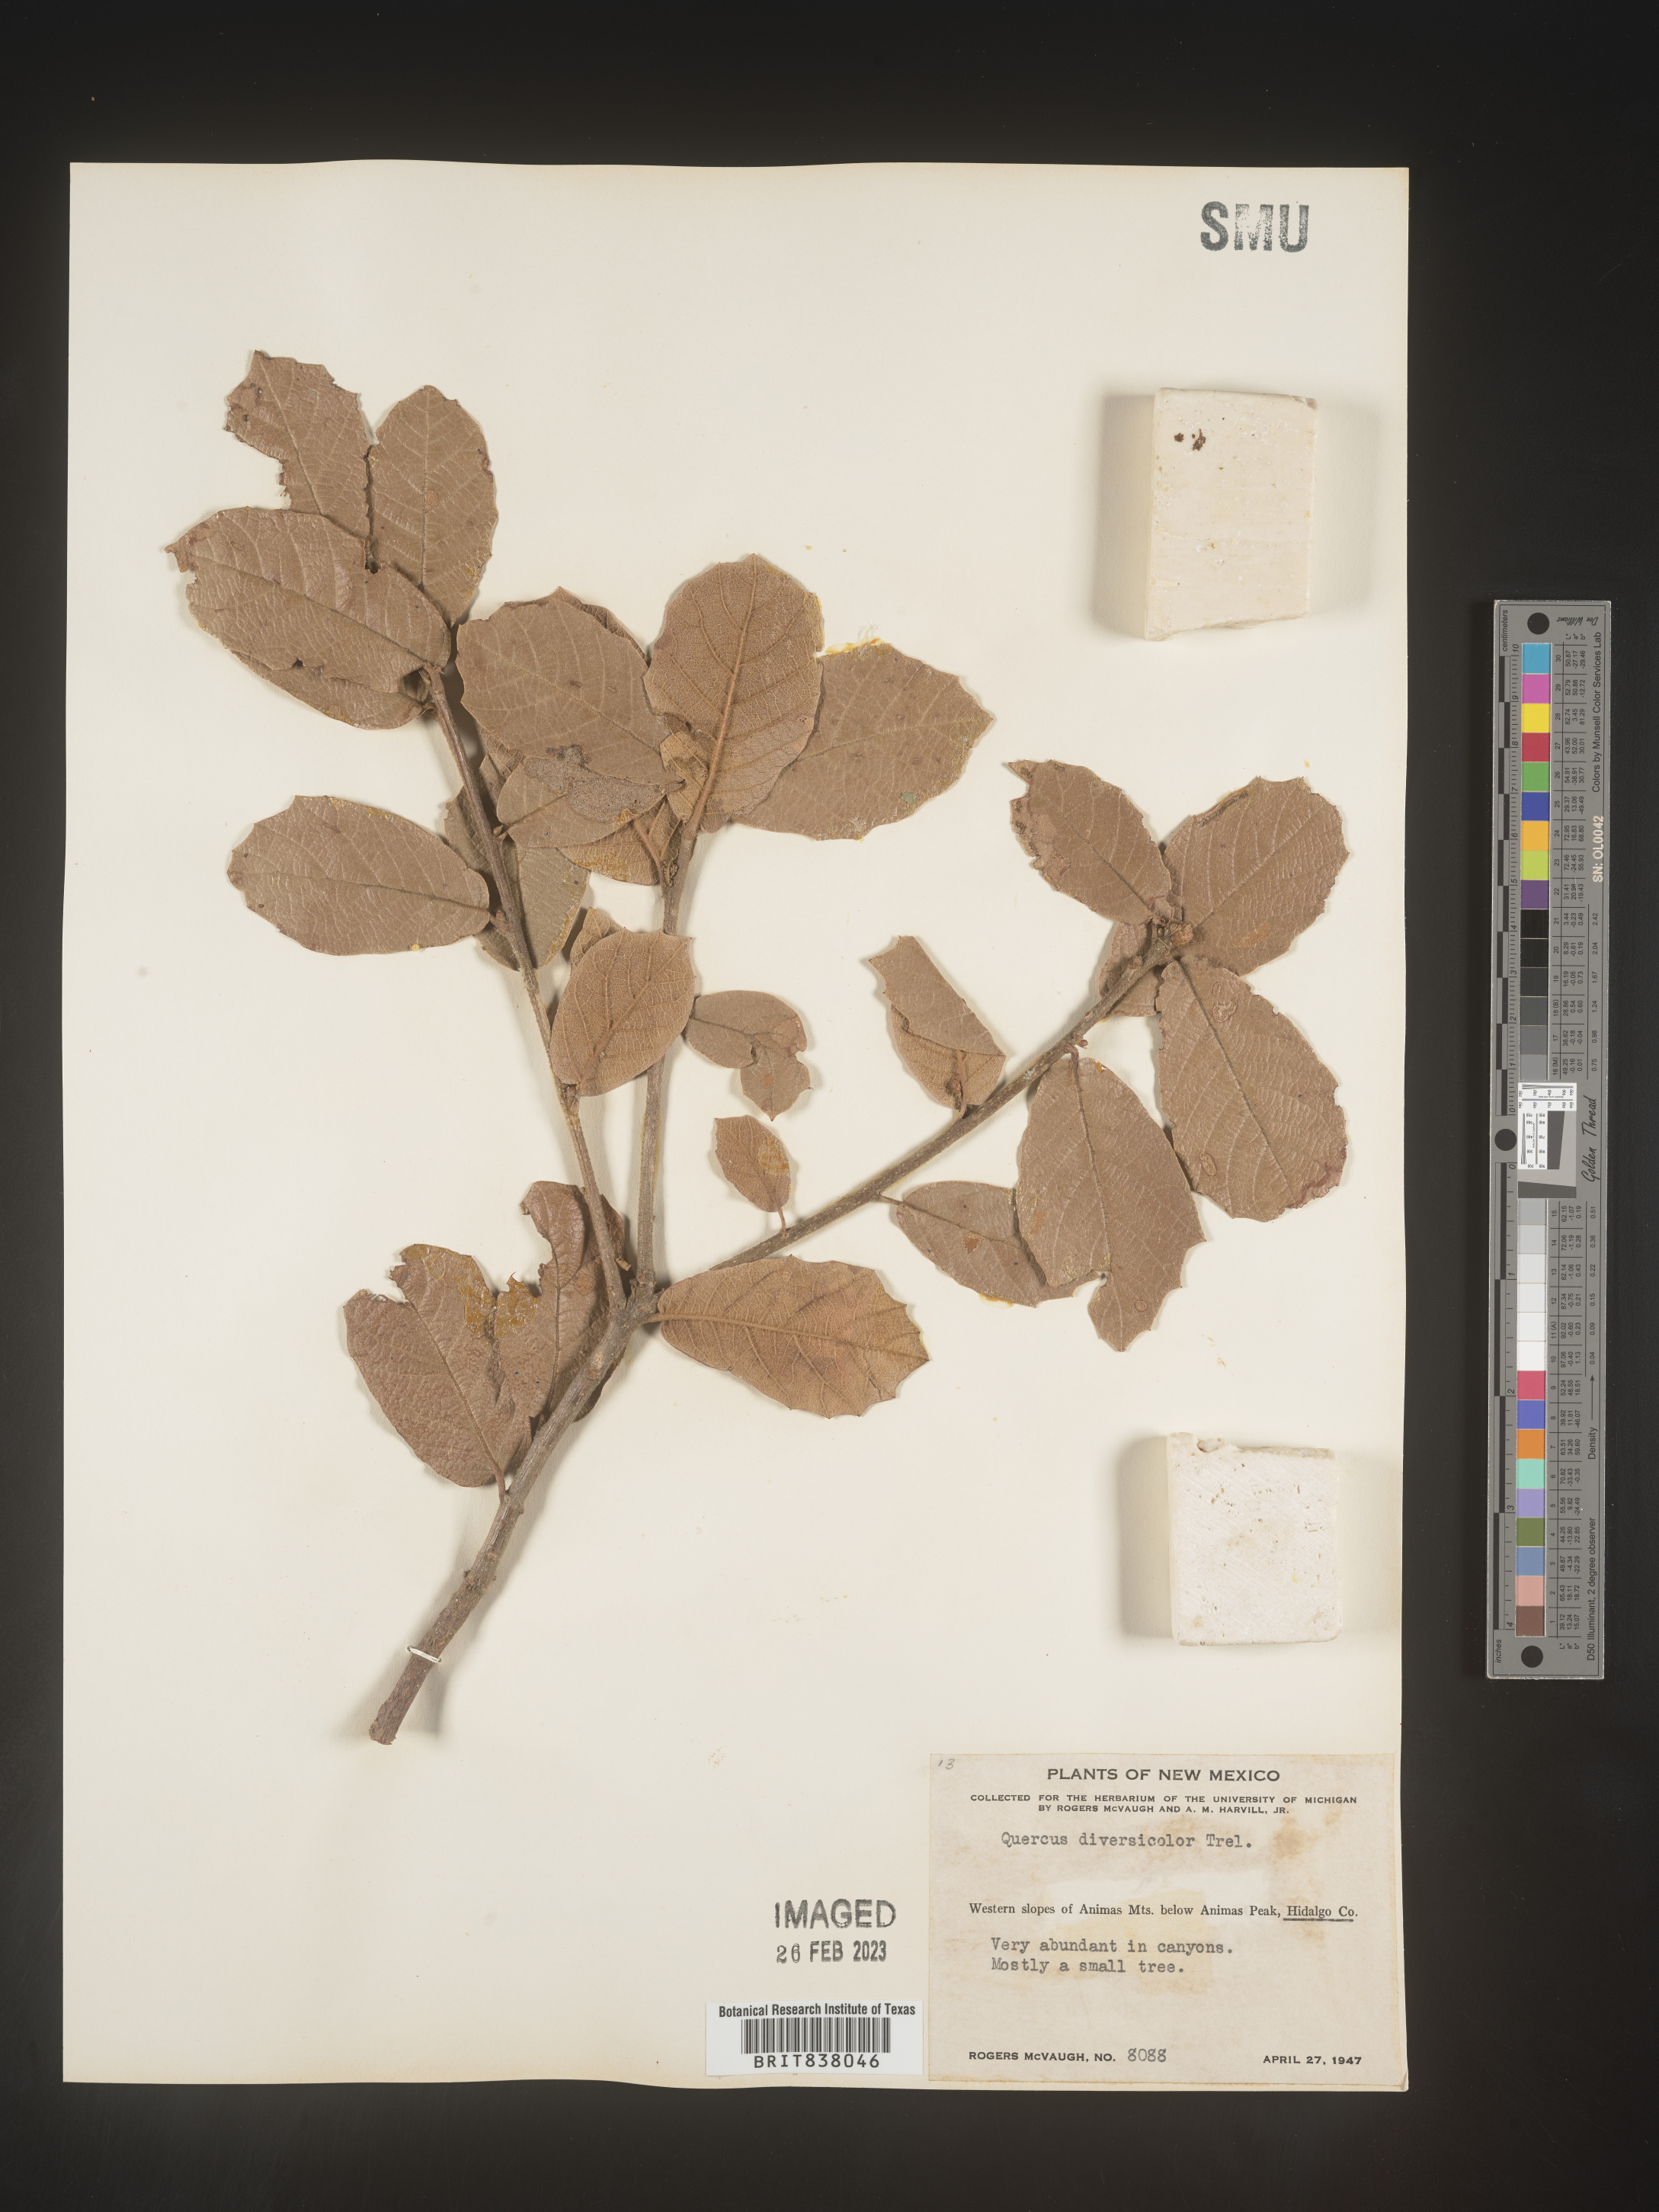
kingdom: Plantae
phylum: Tracheophyta
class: Magnoliopsida
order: Fagales
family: Fagaceae
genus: Quercus
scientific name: Quercus
